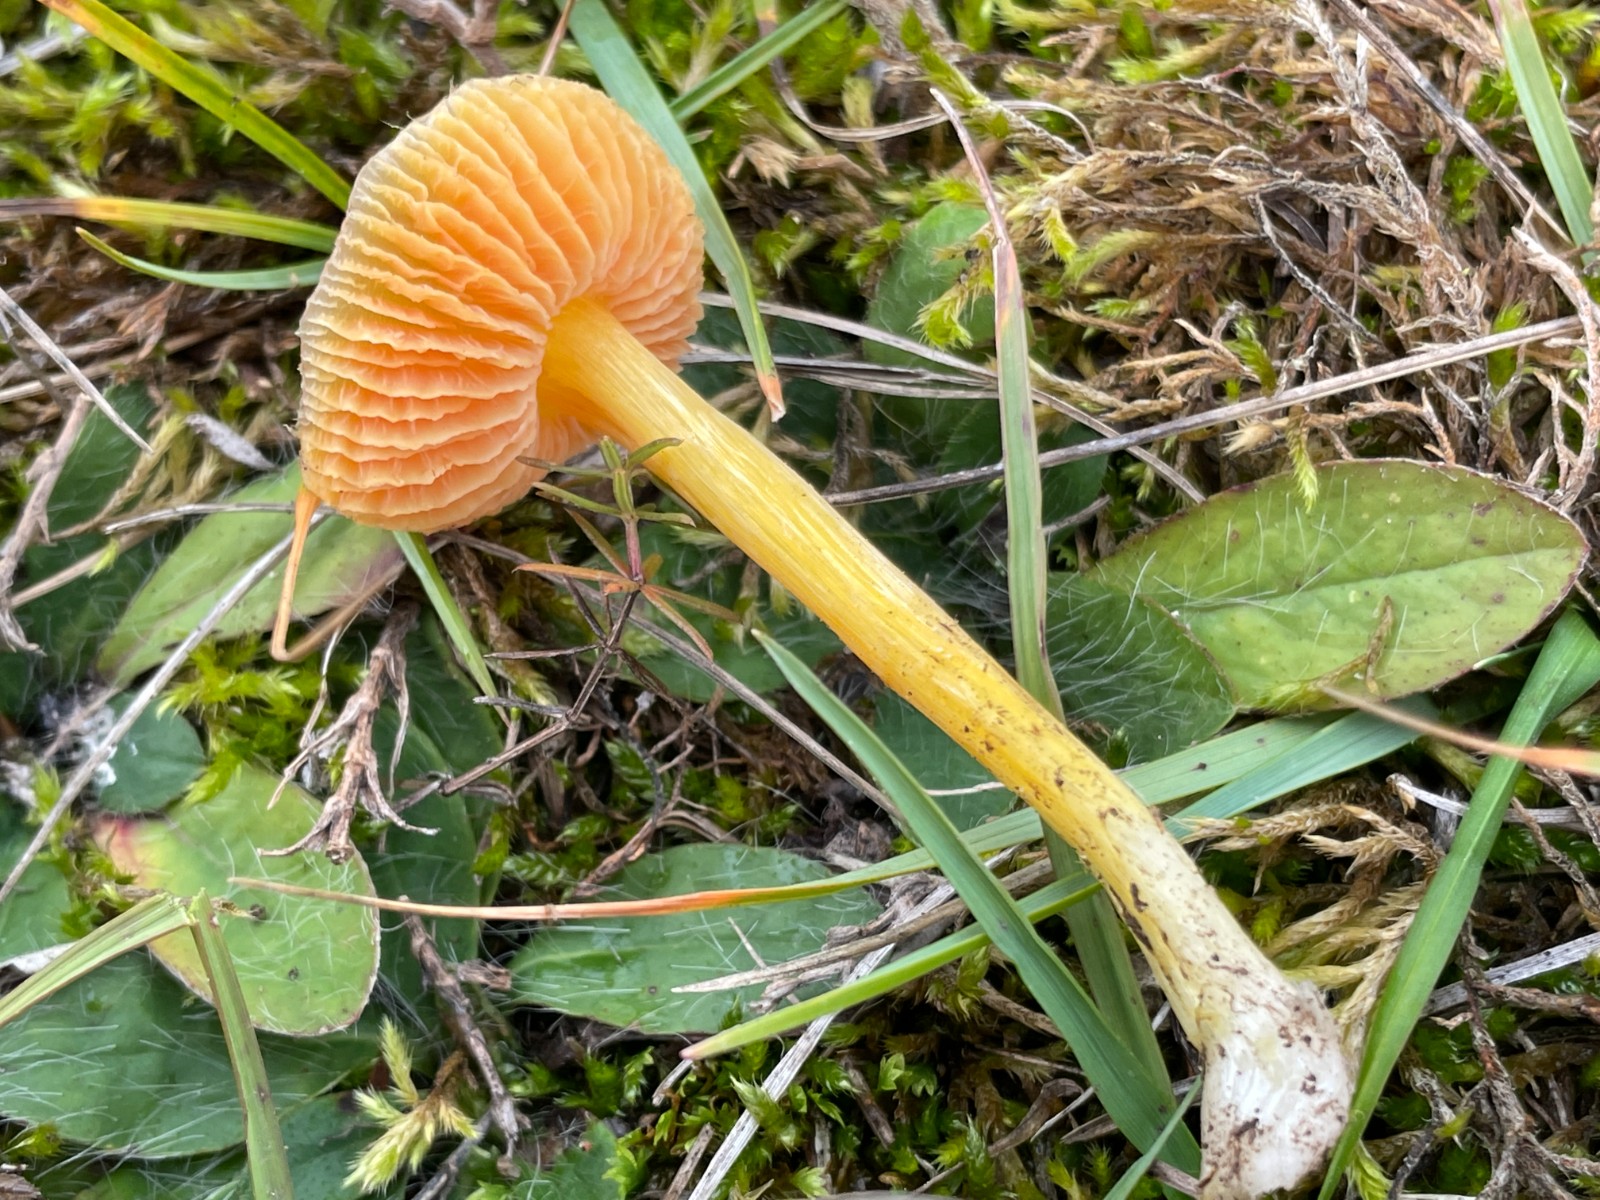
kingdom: Fungi
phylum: Basidiomycota
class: Agaricomycetes
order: Agaricales
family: Hygrophoraceae
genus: Hygrocybe
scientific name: Hygrocybe acutoconica
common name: Konrads vokshat
